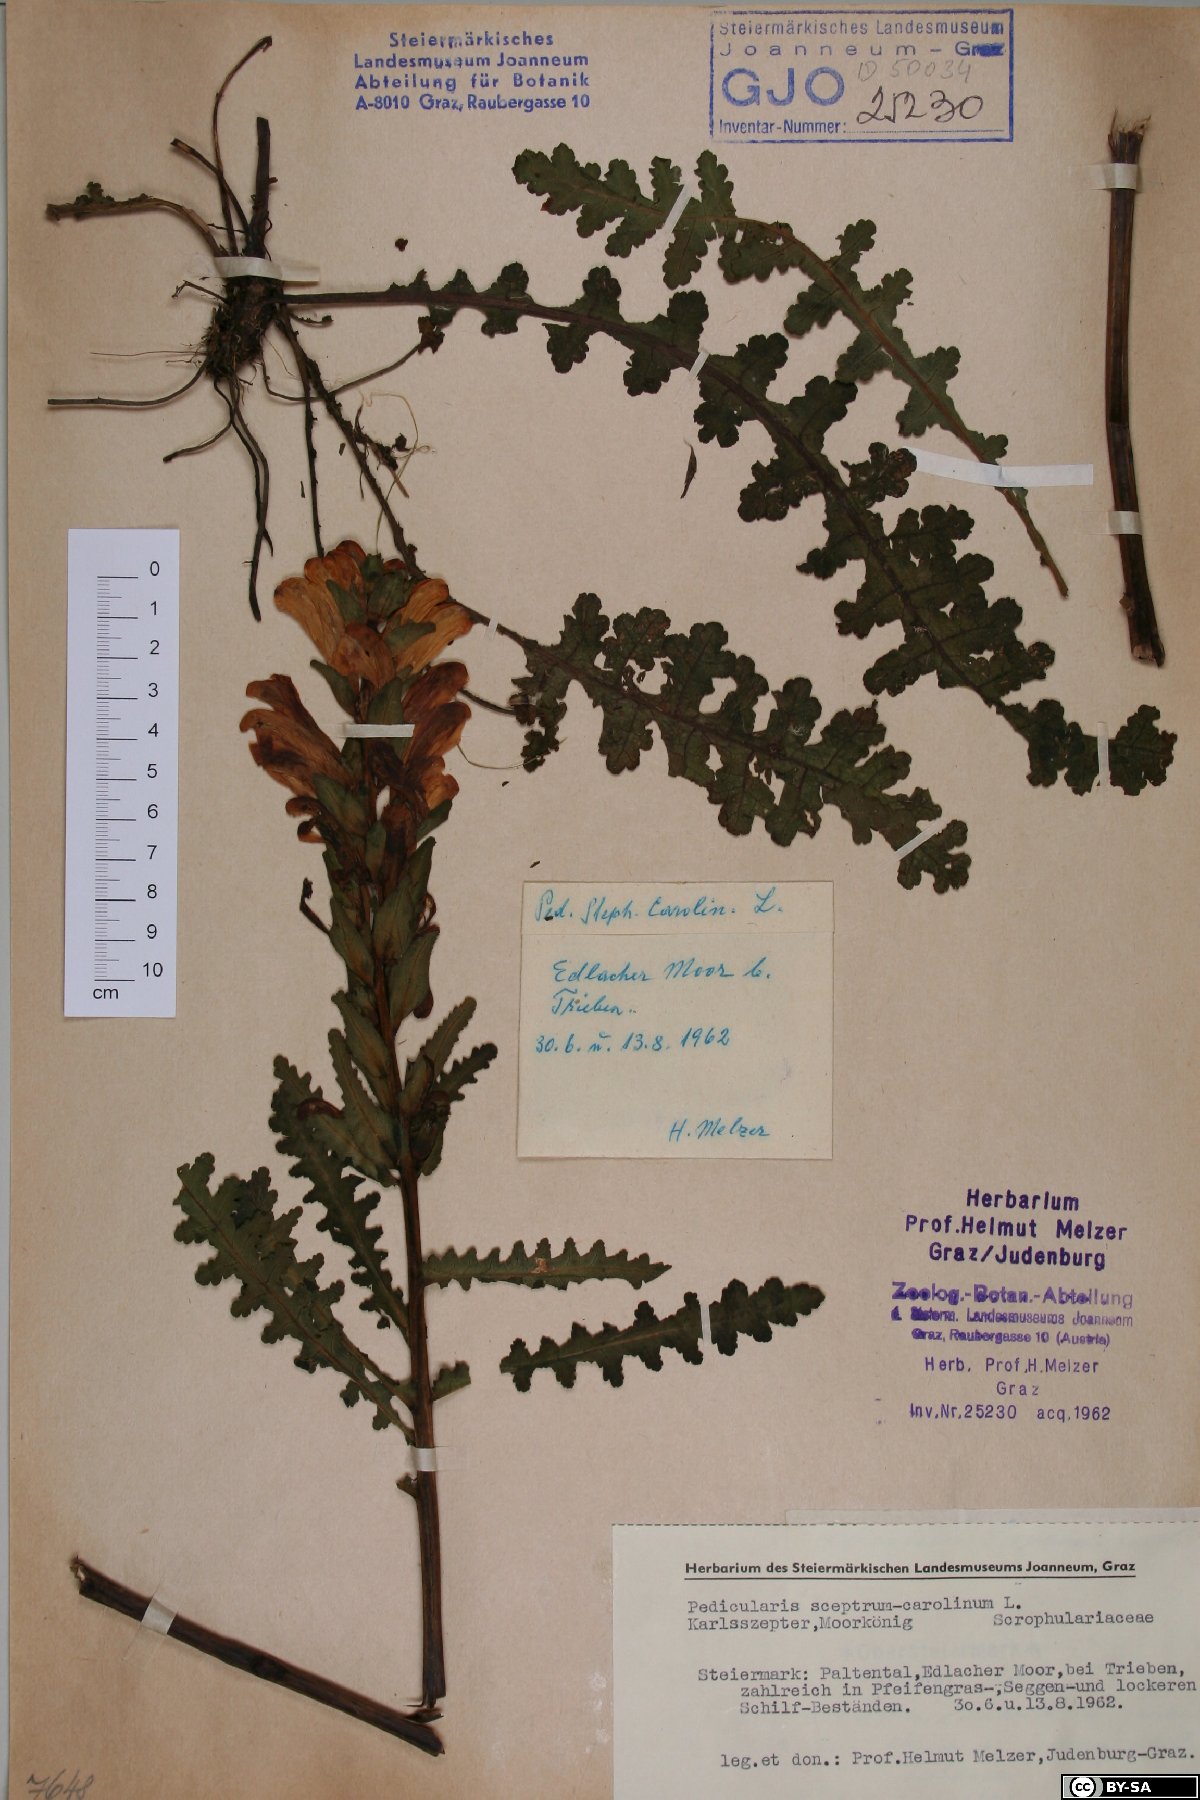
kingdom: Plantae
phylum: Tracheophyta
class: Magnoliopsida
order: Lamiales
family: Orobanchaceae
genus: Pedicularis
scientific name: Pedicularis sceptrum-carolinum
